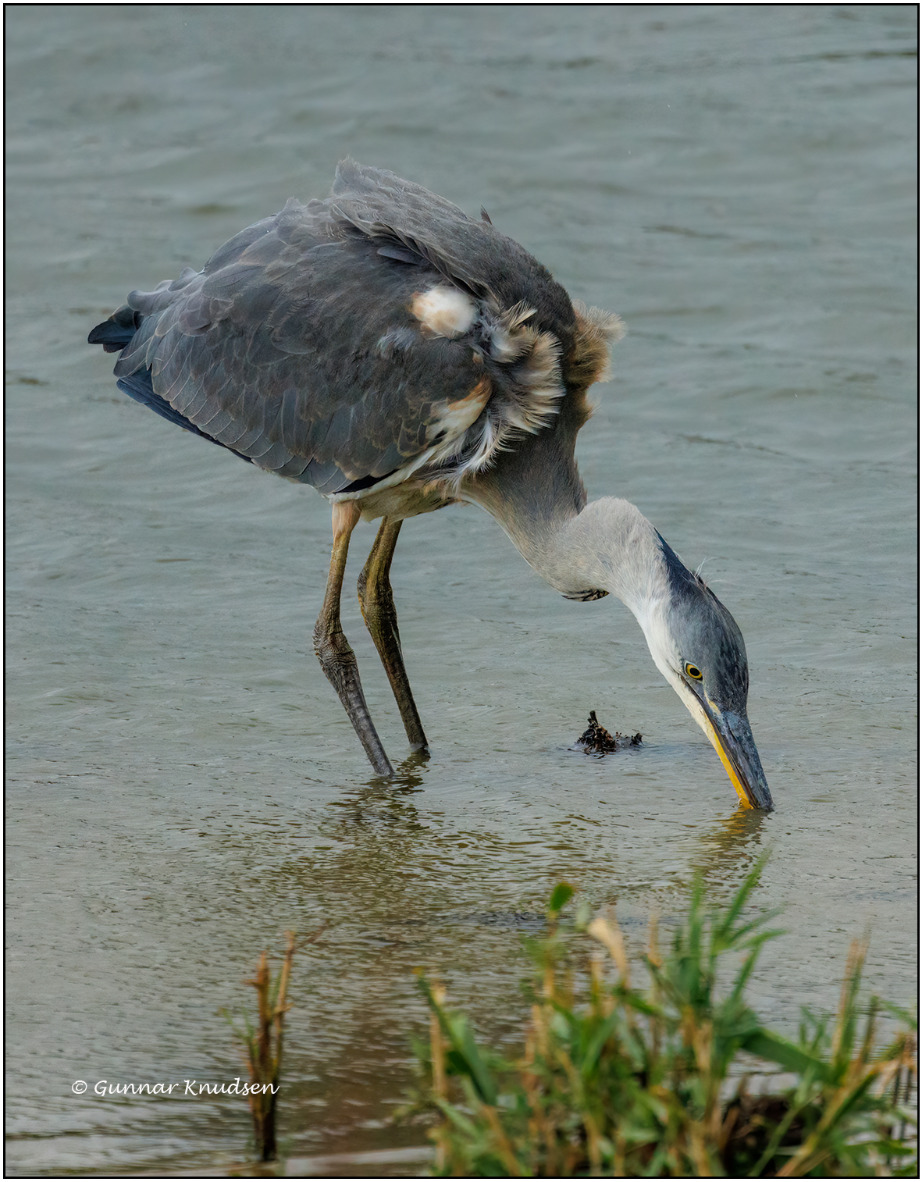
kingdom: Animalia
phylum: Chordata
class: Aves
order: Pelecaniformes
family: Ardeidae
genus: Ardea
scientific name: Ardea cinerea
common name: Fiskehejre
